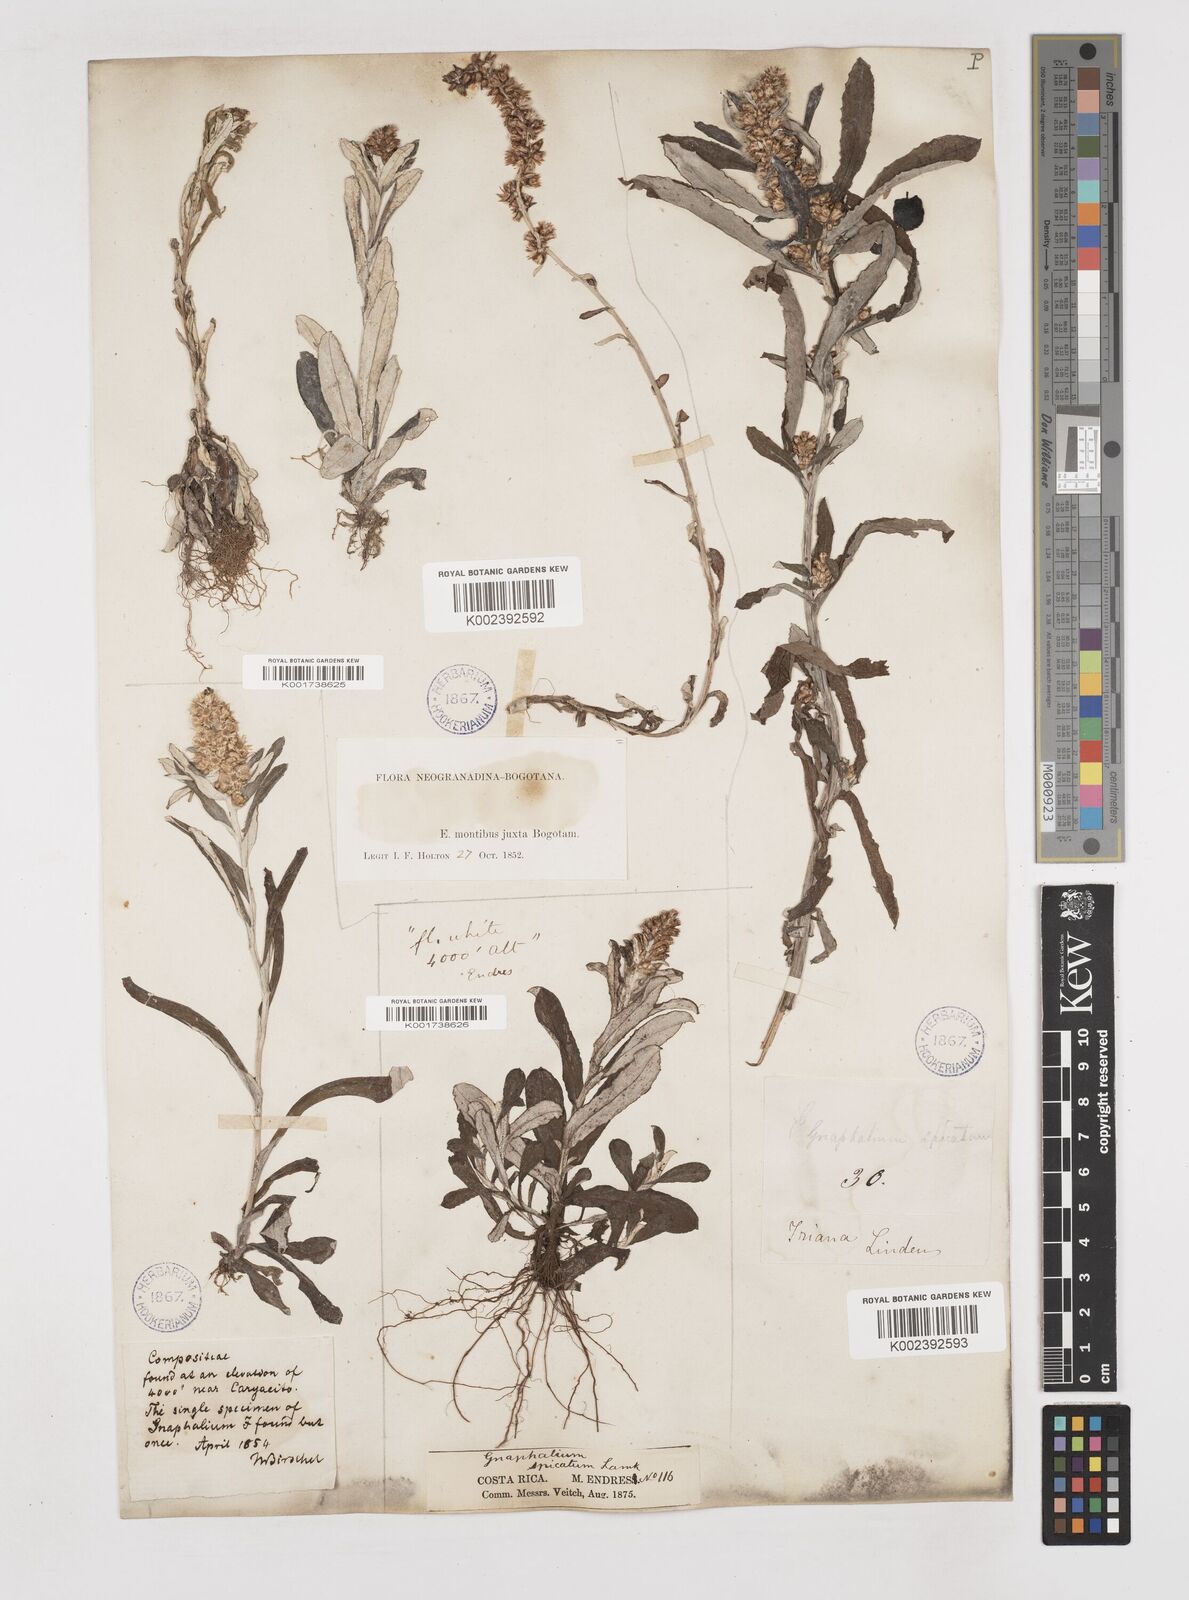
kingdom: Plantae
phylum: Tracheophyta
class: Magnoliopsida
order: Asterales
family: Asteraceae
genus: Gamochaeta
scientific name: Gamochaeta americana
